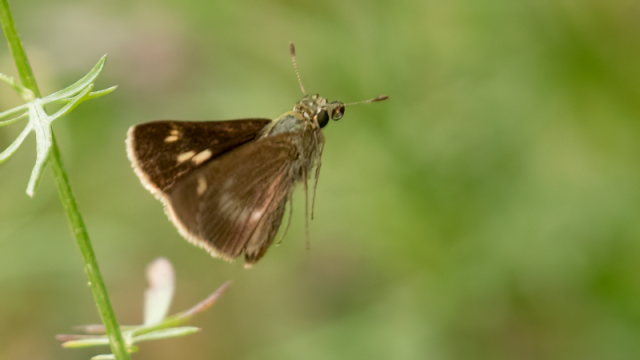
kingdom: Animalia
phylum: Arthropoda
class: Insecta
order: Lepidoptera
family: Hesperiidae
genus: Polites
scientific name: Polites egeremet
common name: Northern Broken-Dash
